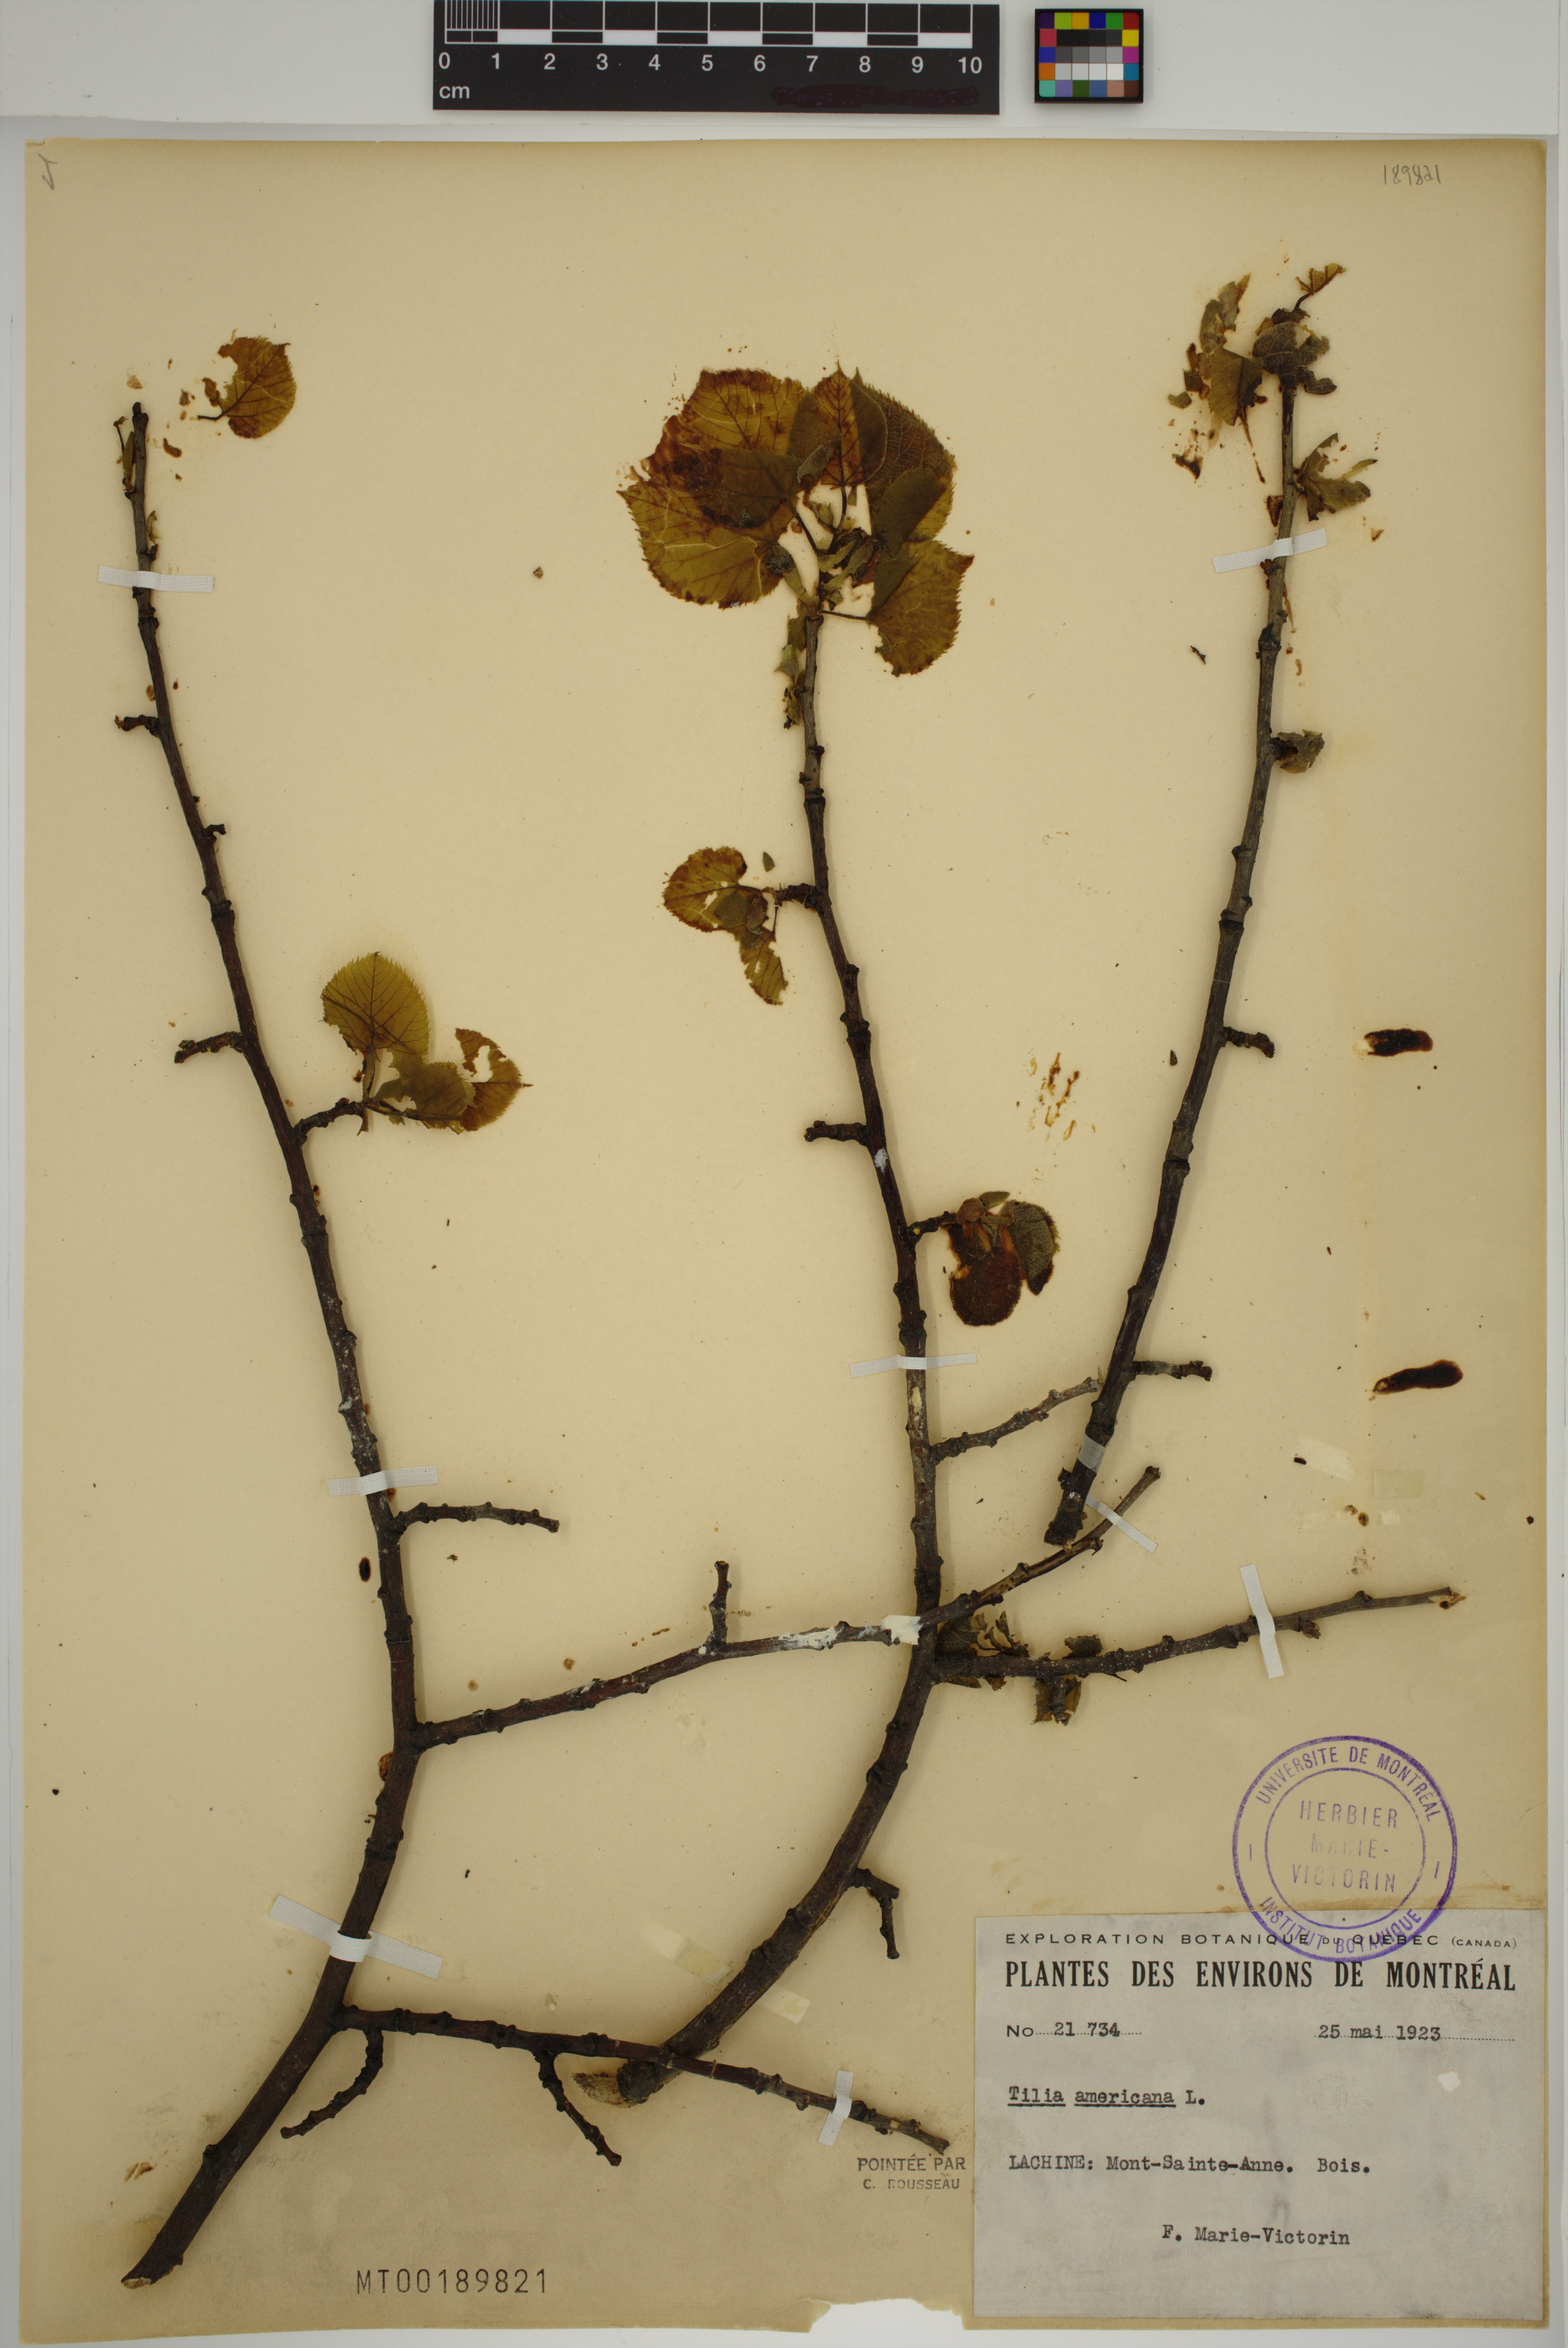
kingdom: Plantae
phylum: Tracheophyta
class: Magnoliopsida
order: Malvales
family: Malvaceae
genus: Tilia
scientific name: Tilia americana
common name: Basswood
